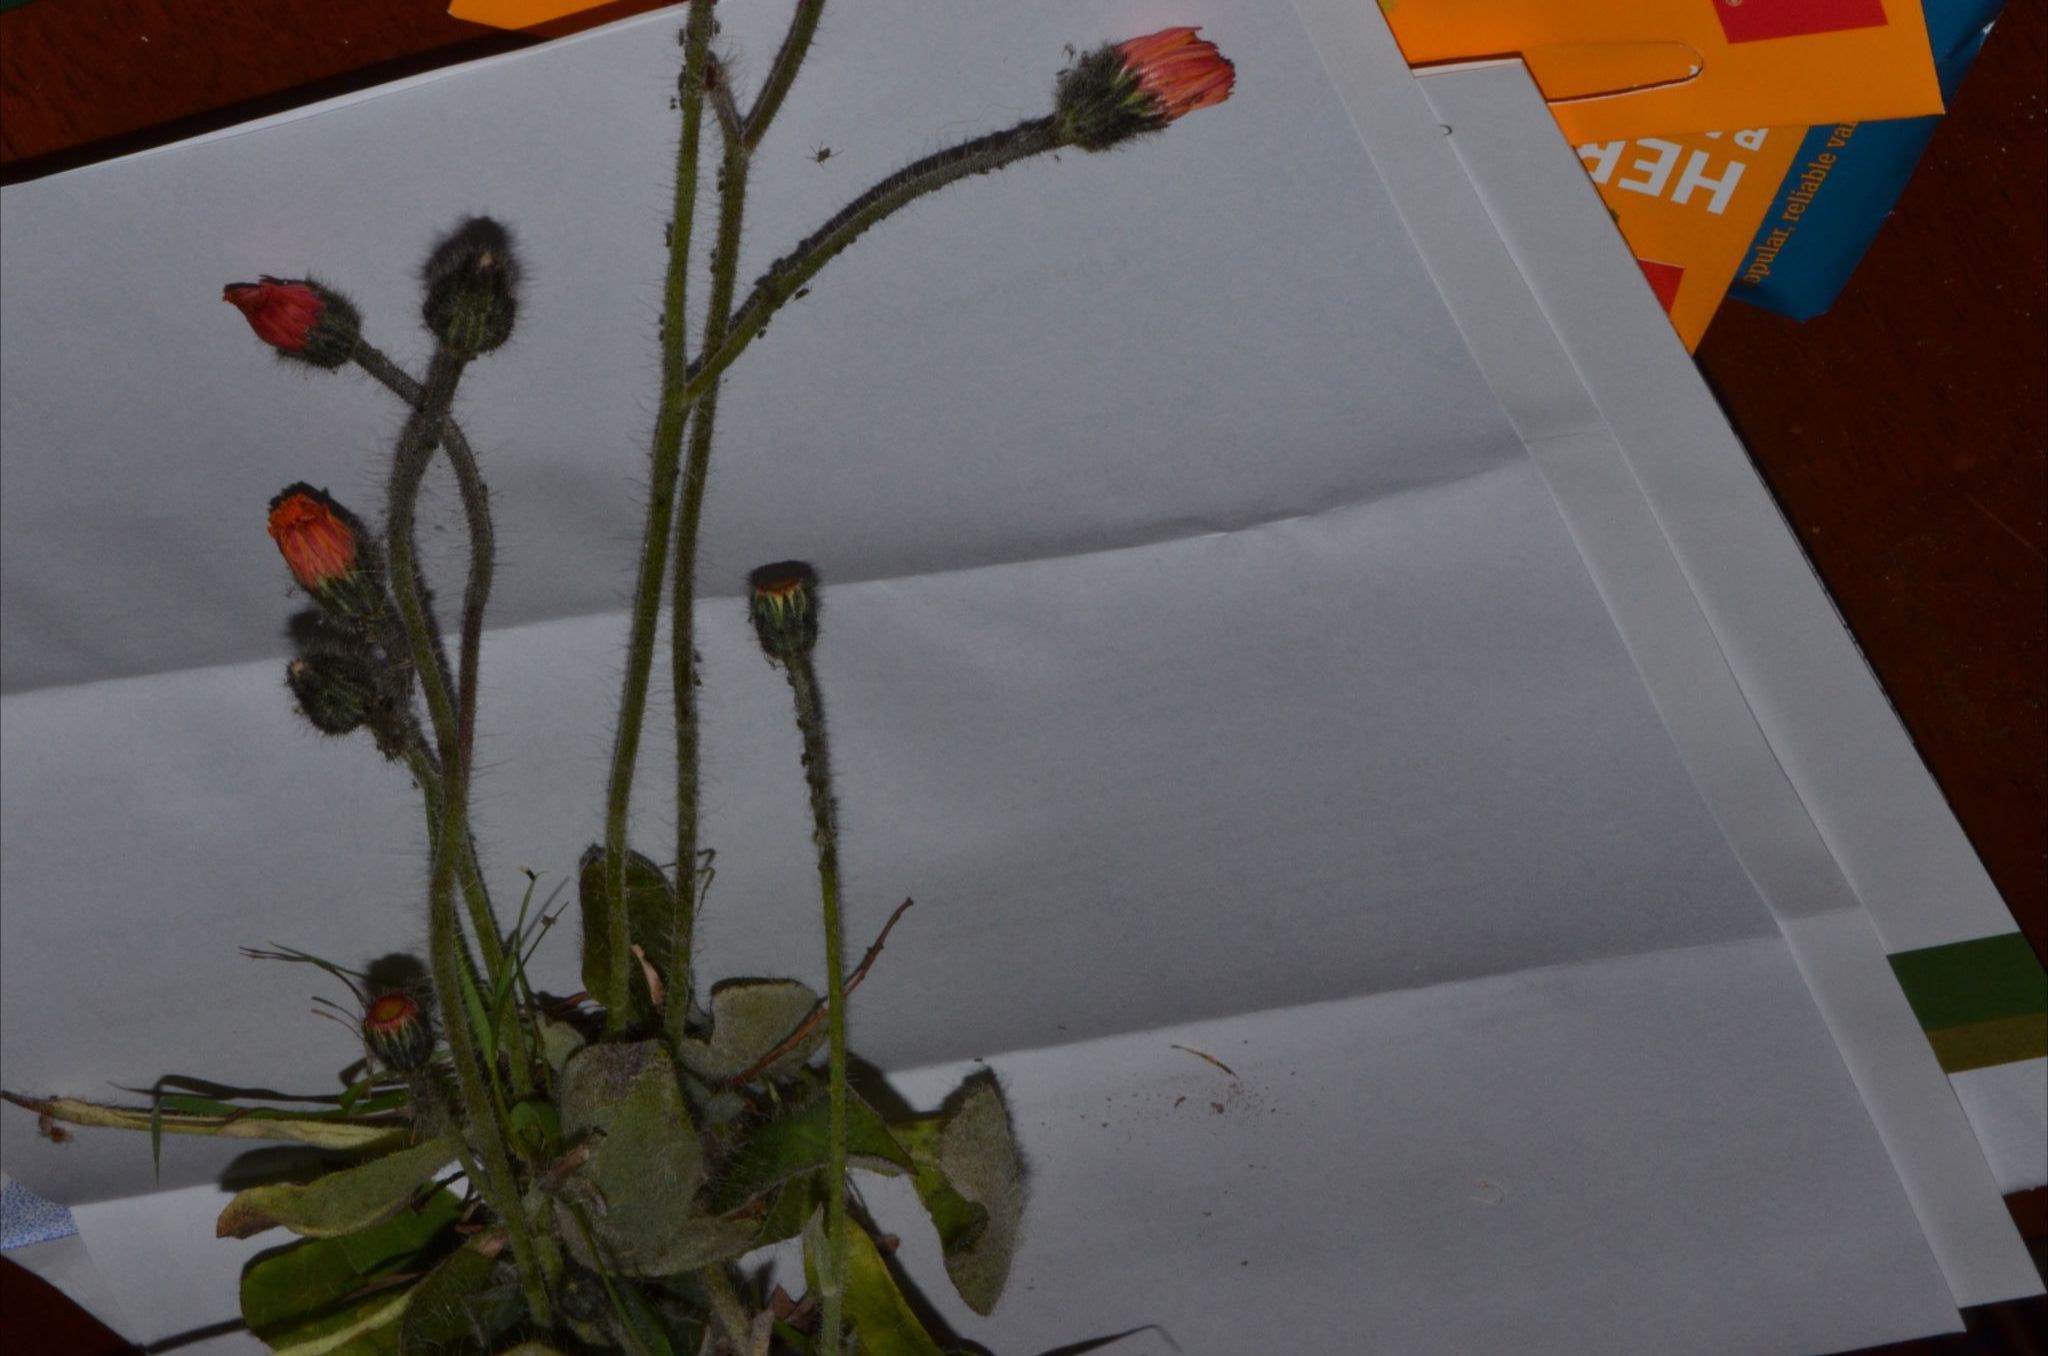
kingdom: Plantae
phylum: Tracheophyta
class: Magnoliopsida
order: Asterales
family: Asteraceae
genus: Pilosella
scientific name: Pilosella stoloniflora
